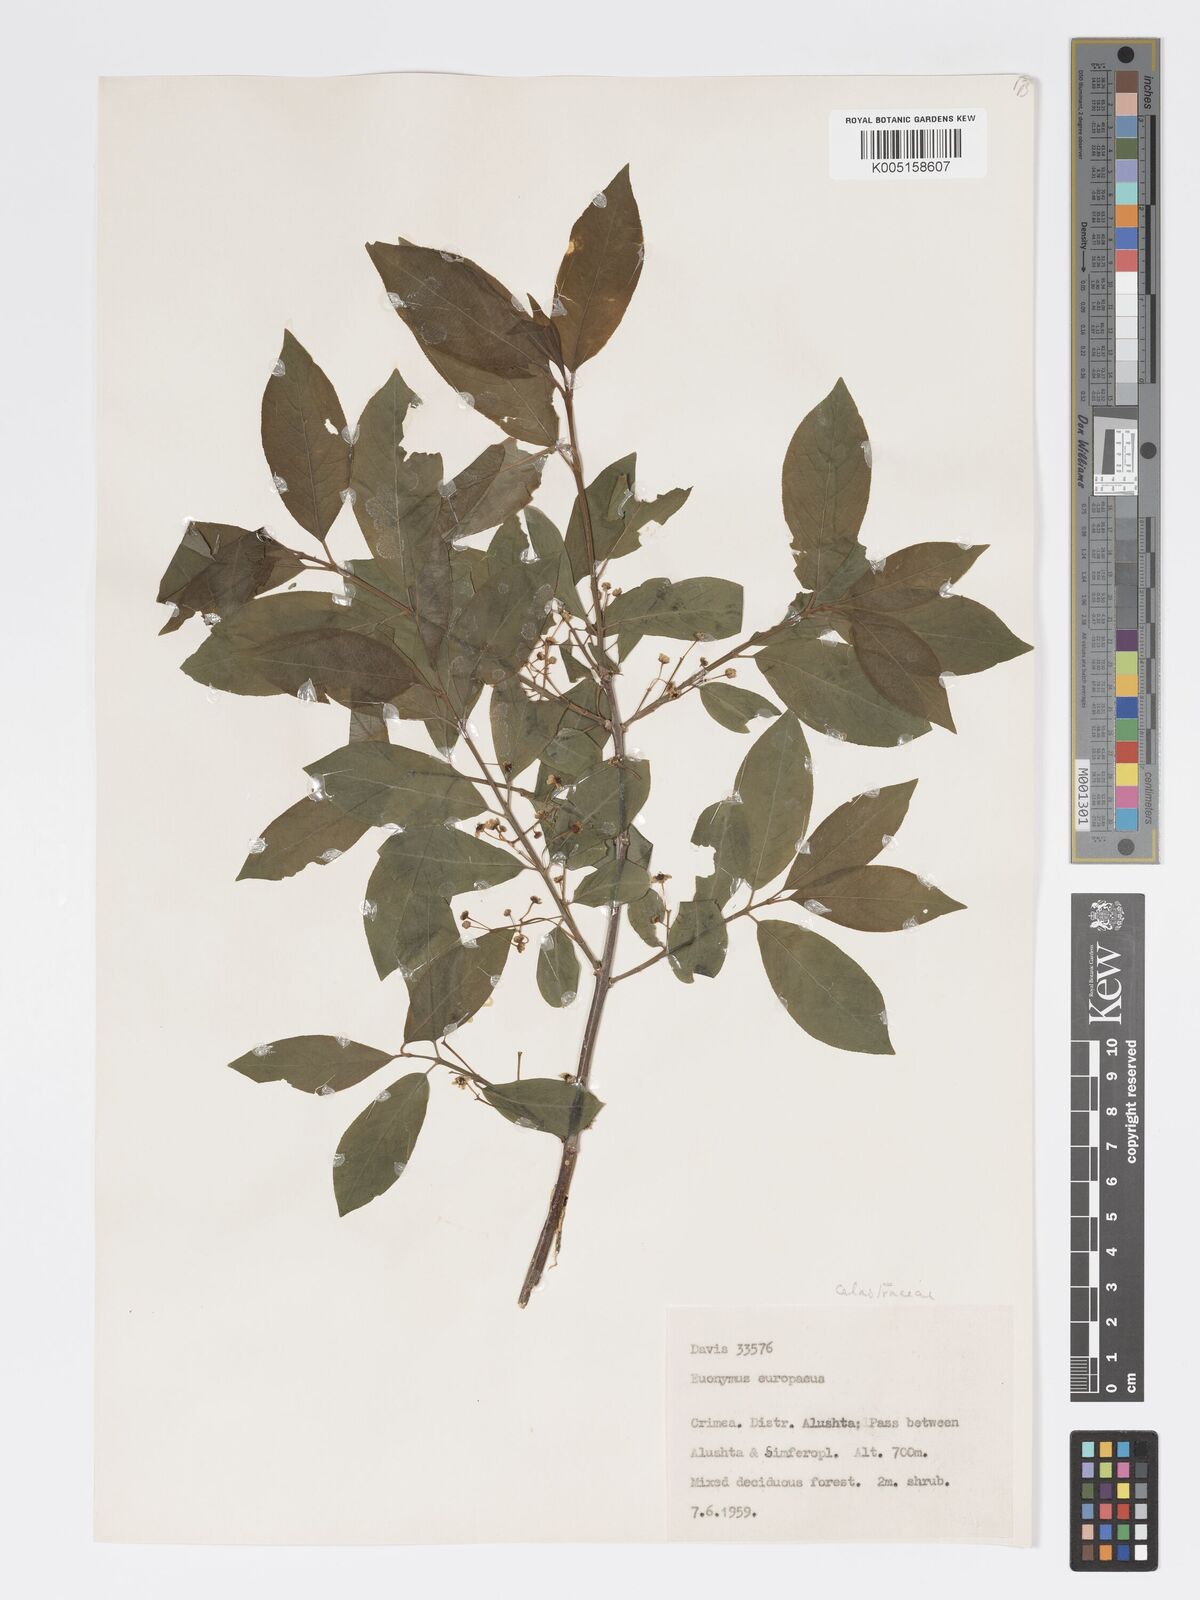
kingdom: Plantae
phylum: Tracheophyta
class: Magnoliopsida
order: Celastrales
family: Celastraceae
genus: Euonymus
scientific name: Euonymus europaeus
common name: Spindle
